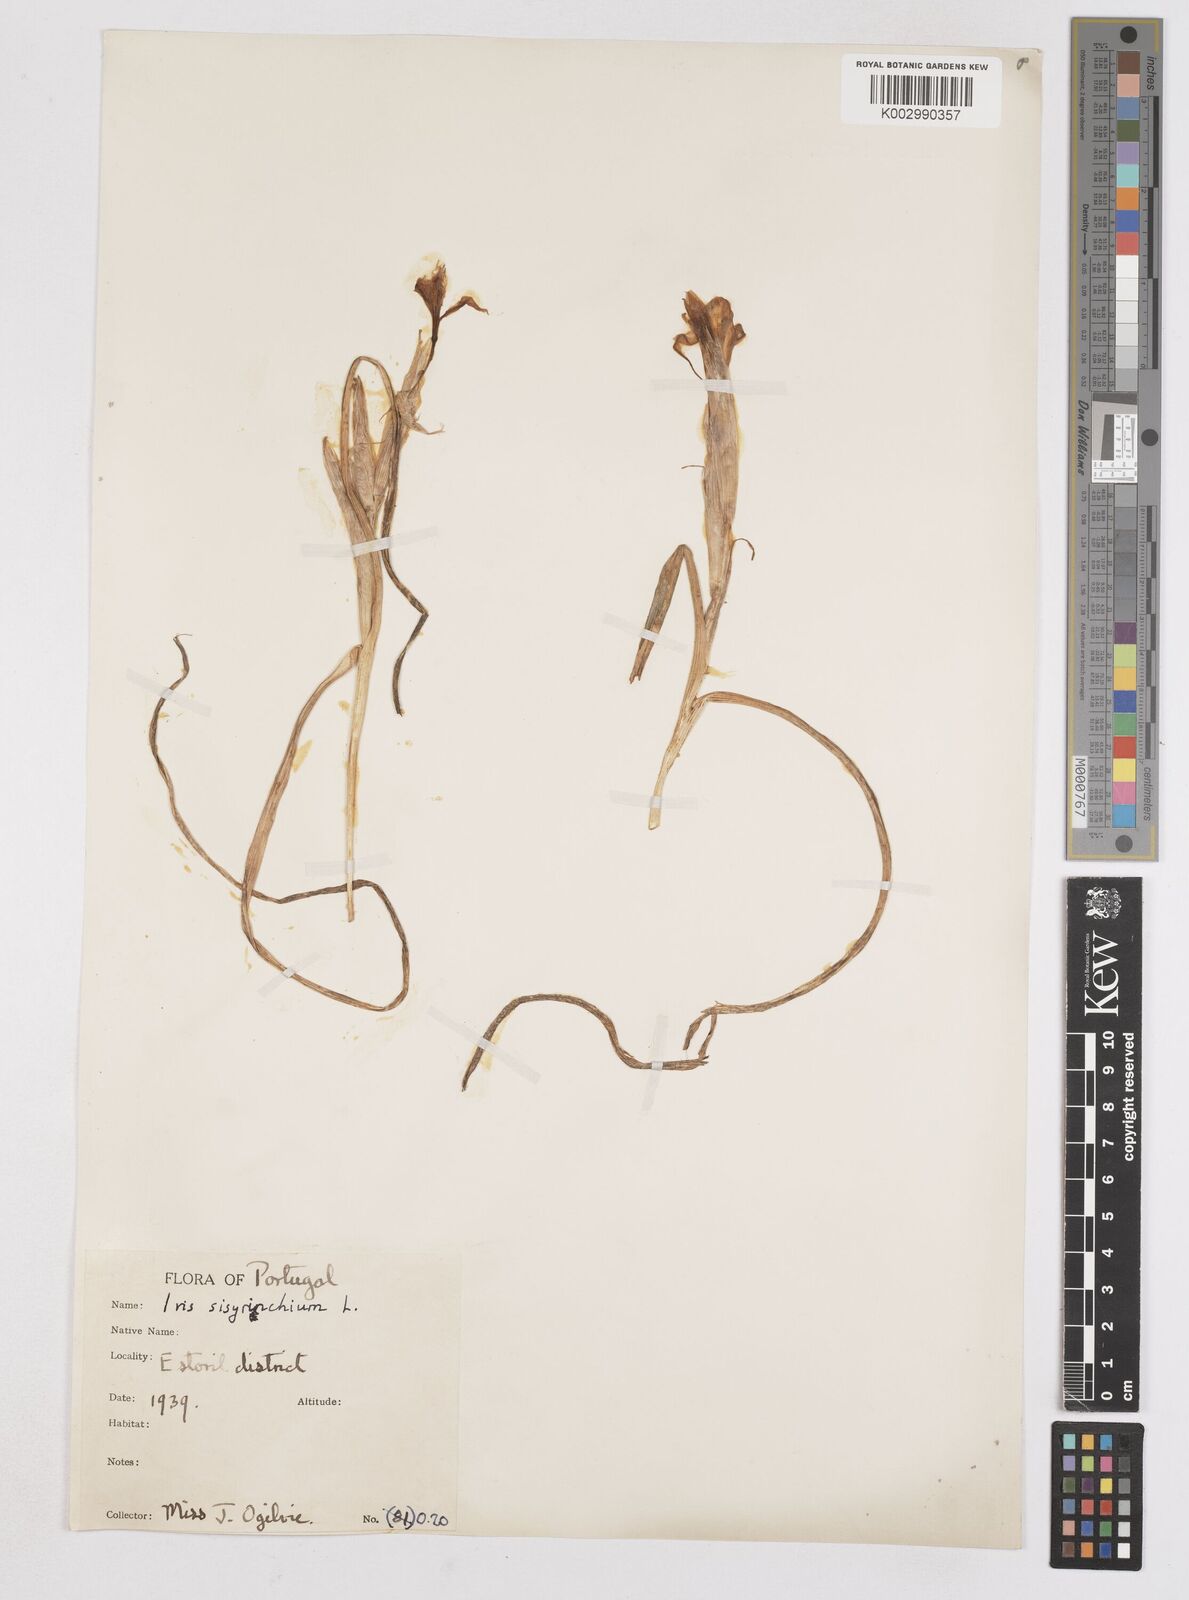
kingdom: Plantae
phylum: Tracheophyta
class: Liliopsida
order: Asparagales
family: Iridaceae
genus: Moraea
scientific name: Moraea sisyrinchium
